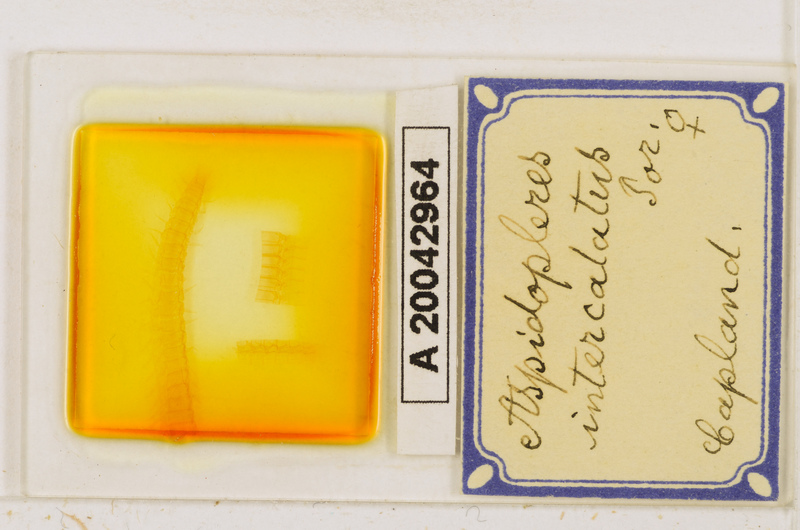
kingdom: Animalia
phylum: Arthropoda
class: Chilopoda
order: Geophilomorpha
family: Oryidae
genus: Aspidopleres
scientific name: Aspidopleres intercalatus
